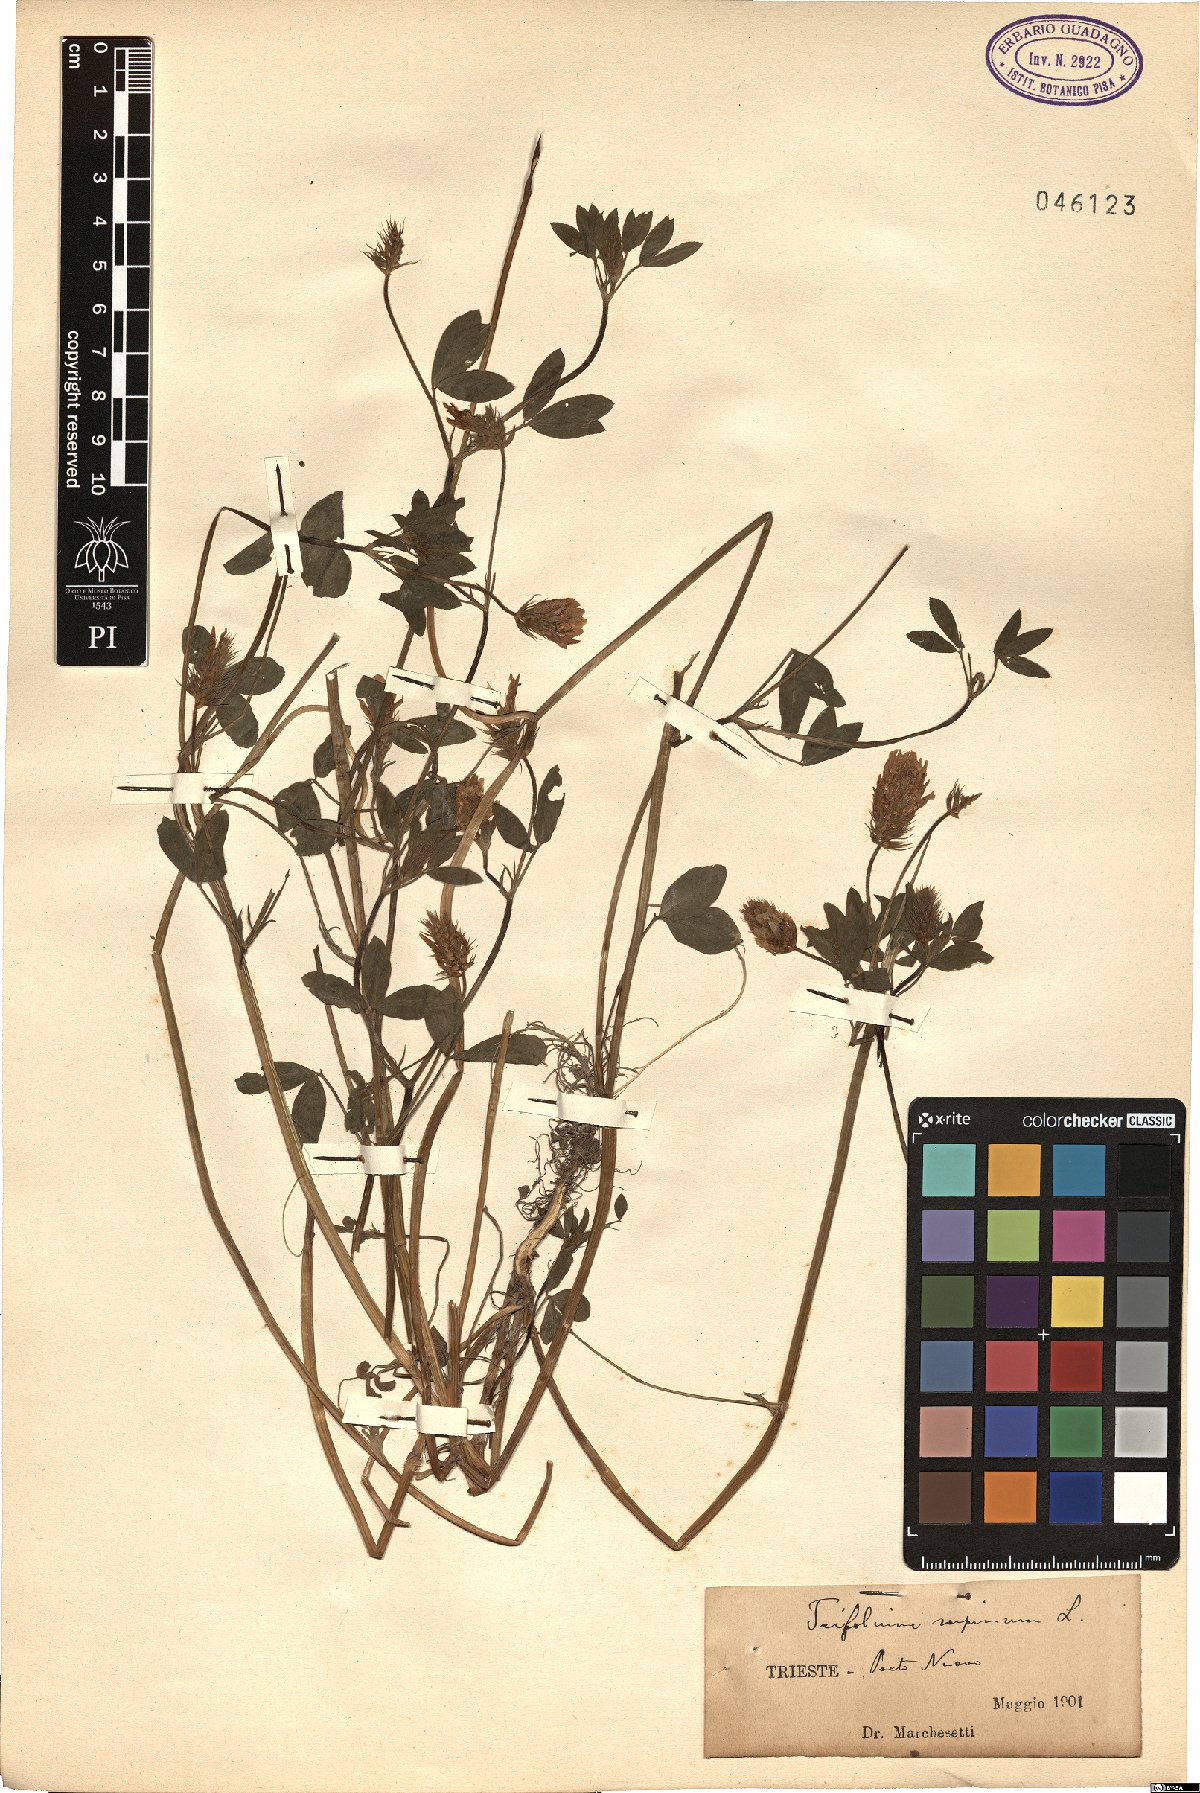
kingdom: Plantae
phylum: Tracheophyta
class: Magnoliopsida
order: Fabales
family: Fabaceae
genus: Trifolium
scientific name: Trifolium echinatum
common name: Hedgehog clover
